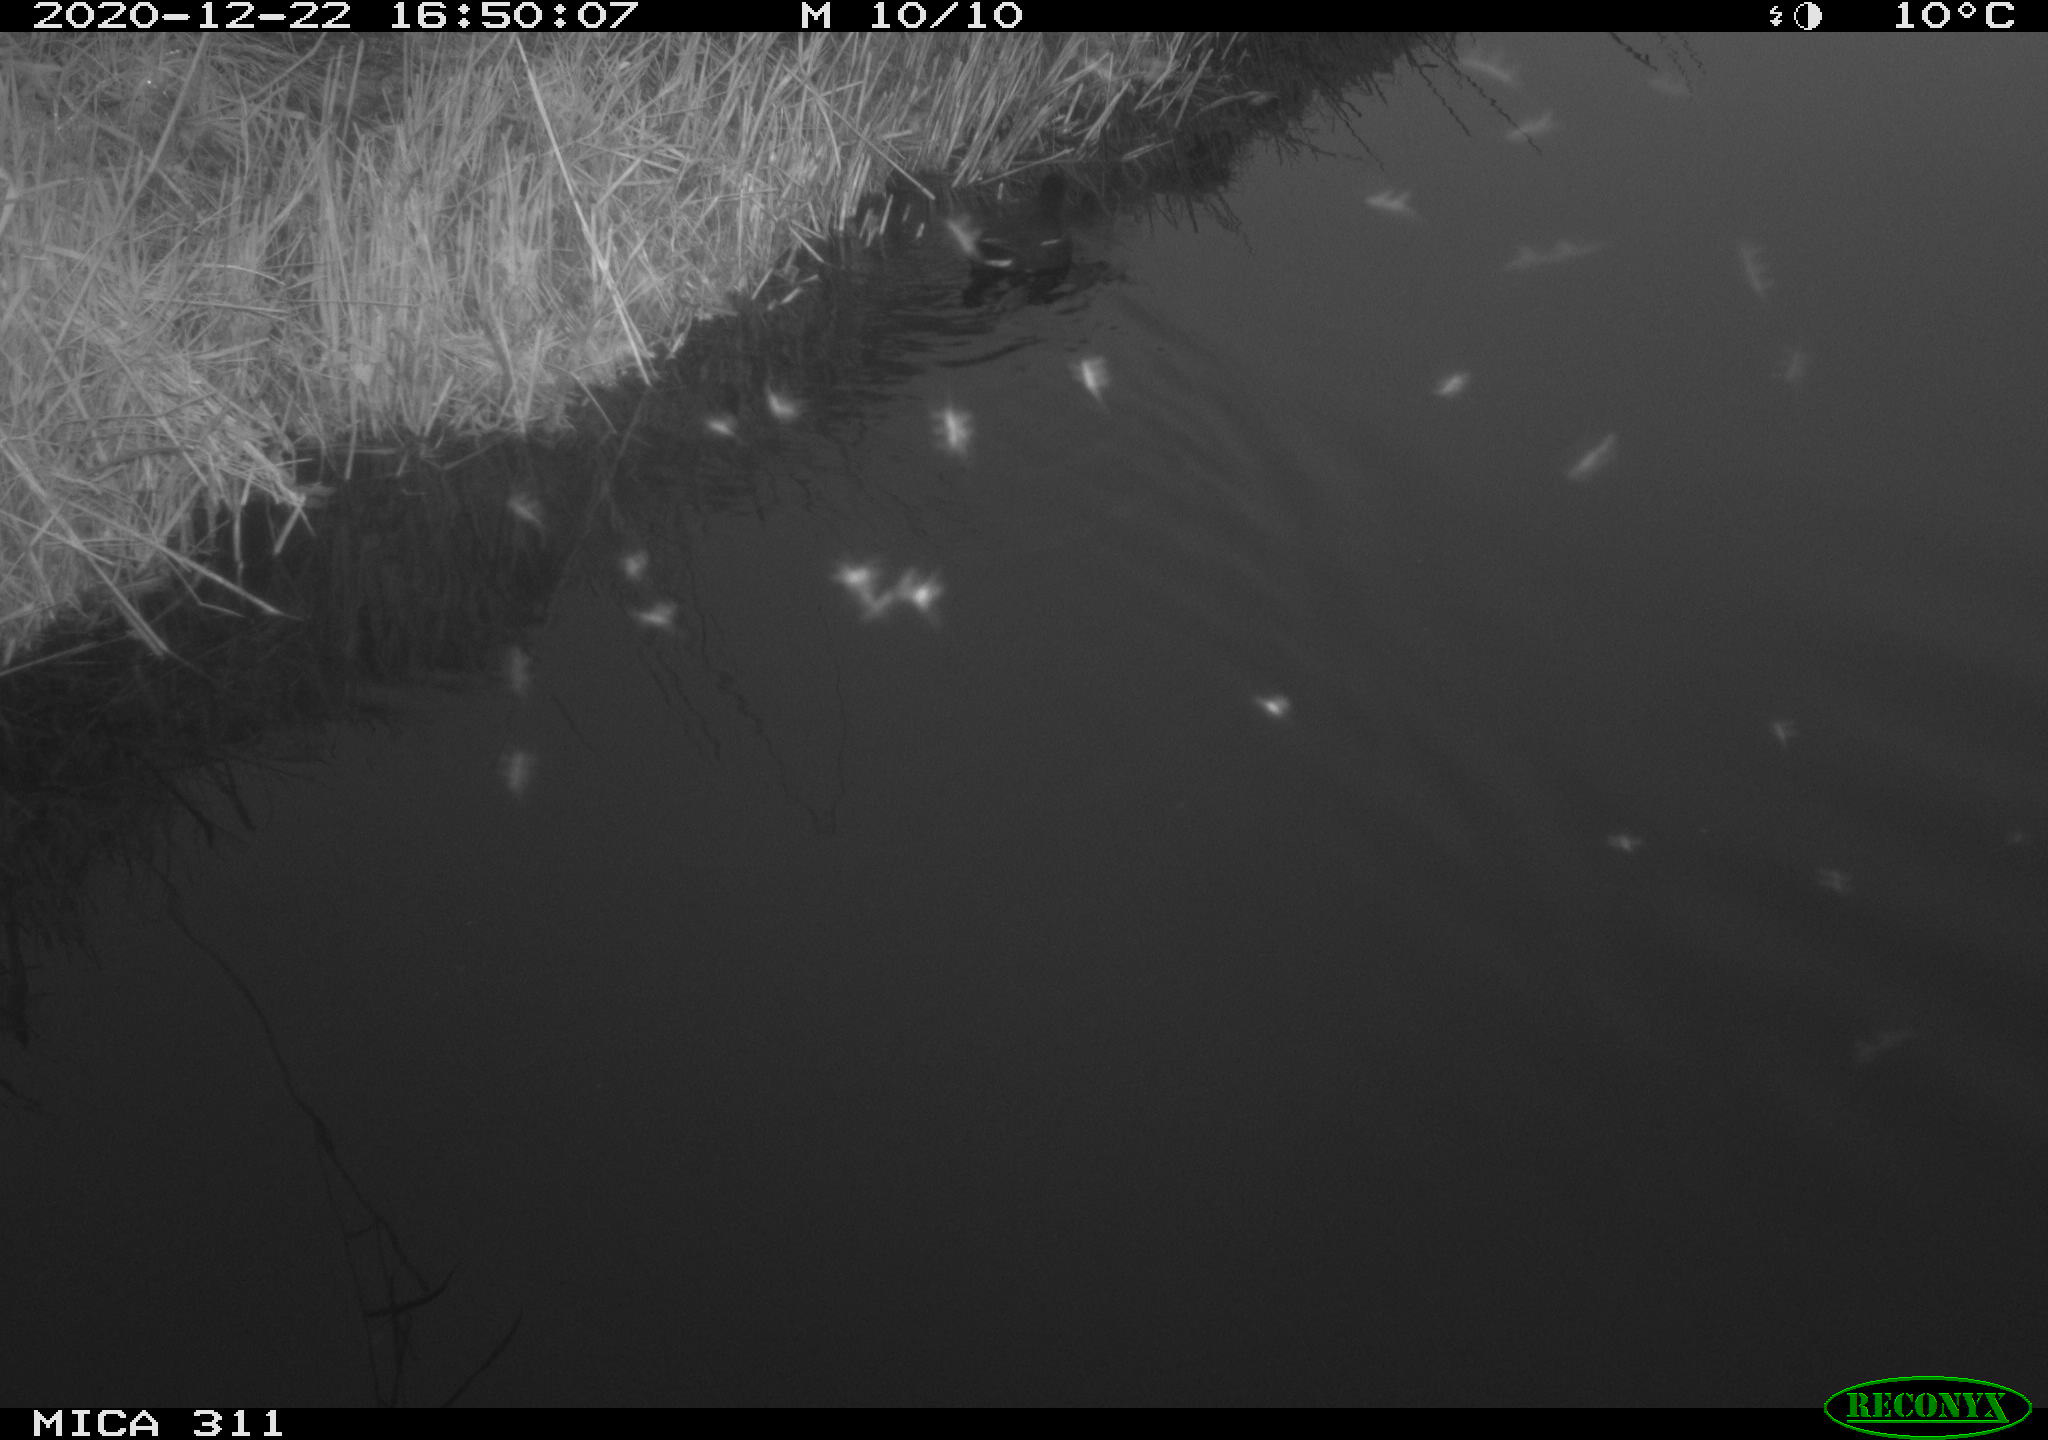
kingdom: Animalia
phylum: Chordata
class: Aves
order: Gruiformes
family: Rallidae
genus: Gallinula
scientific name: Gallinula chloropus
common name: Common moorhen
